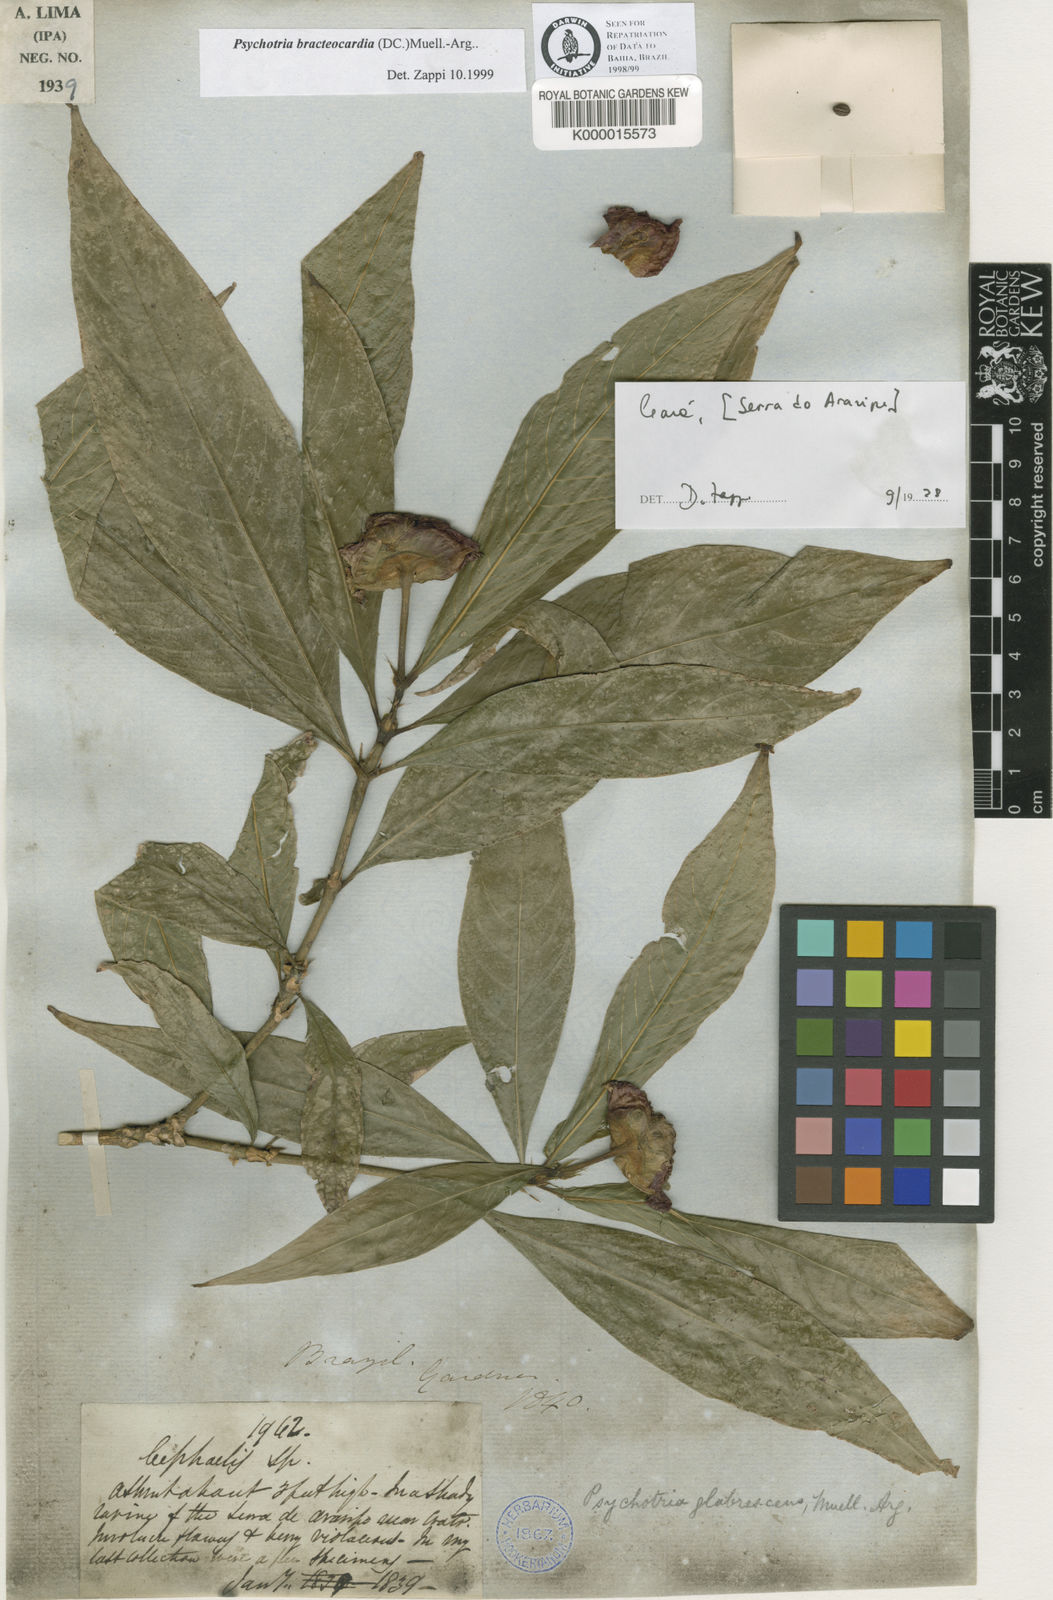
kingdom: Plantae
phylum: Tracheophyta
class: Magnoliopsida
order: Gentianales
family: Rubiaceae
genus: Psychotria
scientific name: Psychotria
